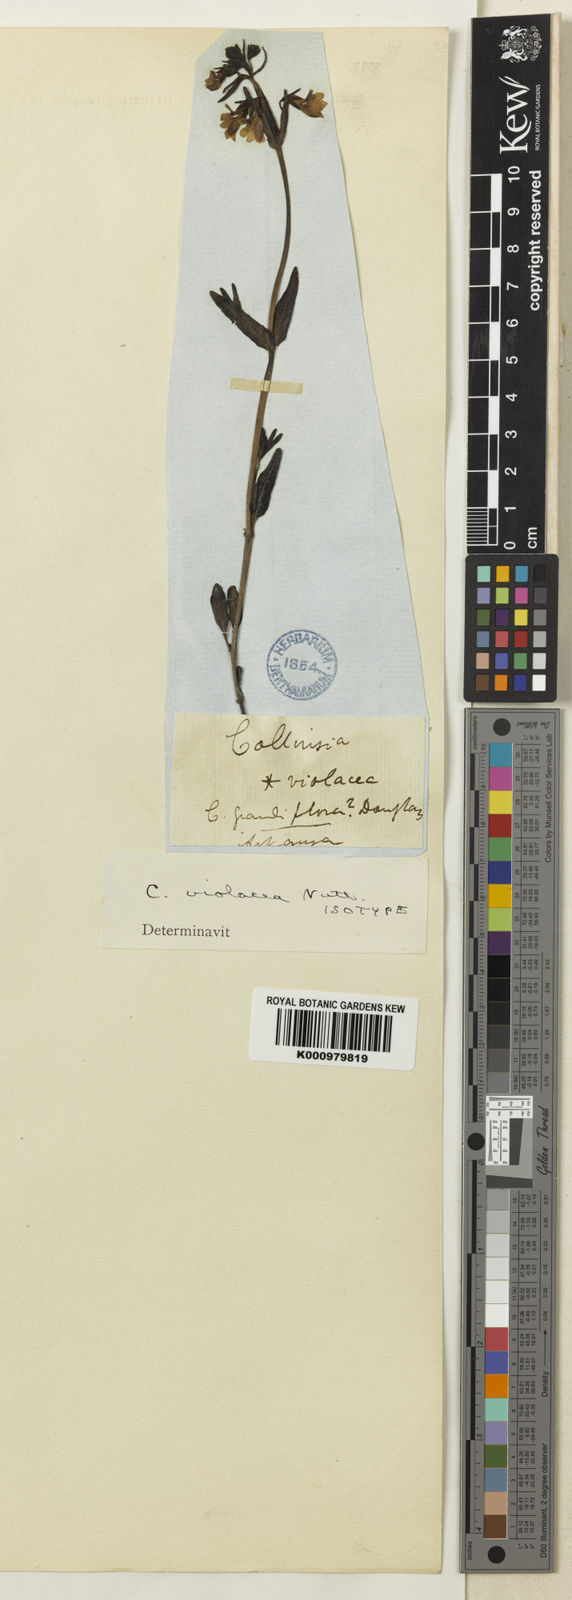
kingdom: Plantae
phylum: Tracheophyta
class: Magnoliopsida
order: Lamiales
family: Plantaginaceae
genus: Collinsia
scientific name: Collinsia violacea
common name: Violet collinsia
